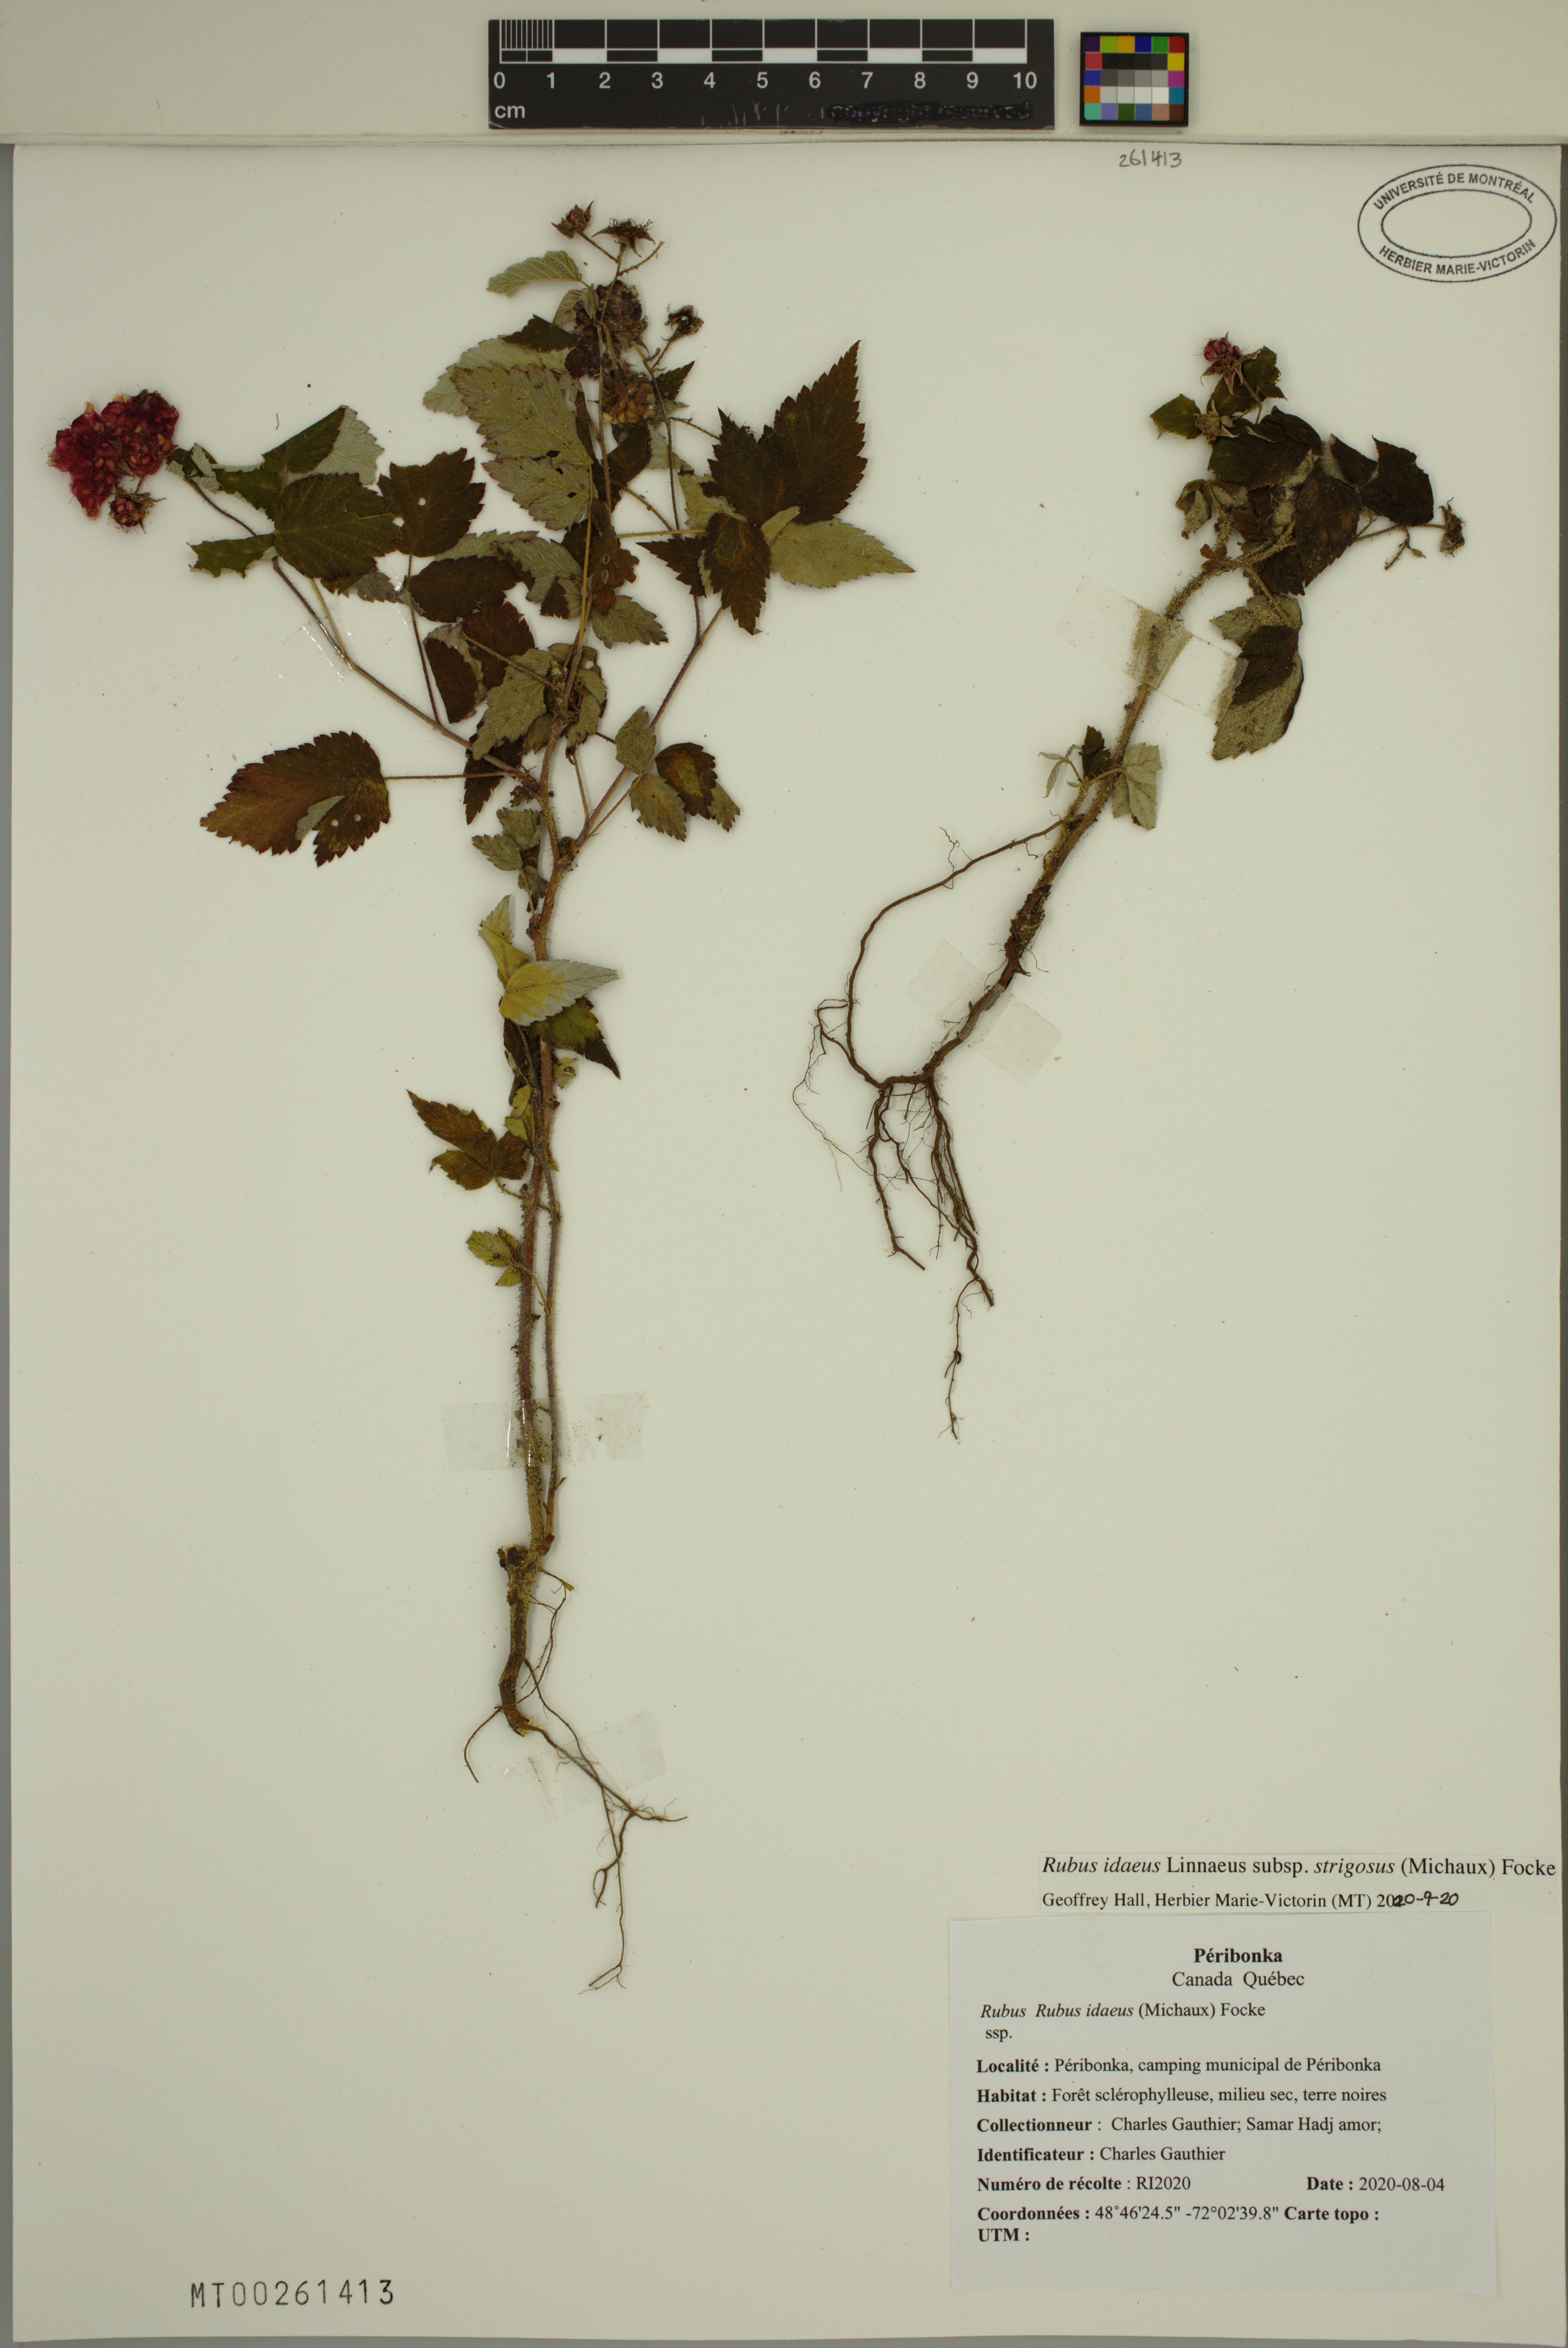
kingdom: Plantae
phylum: Tracheophyta
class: Magnoliopsida
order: Rosales
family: Rosaceae
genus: Rubus
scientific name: Rubus sachalinensis
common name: Red raspberry
